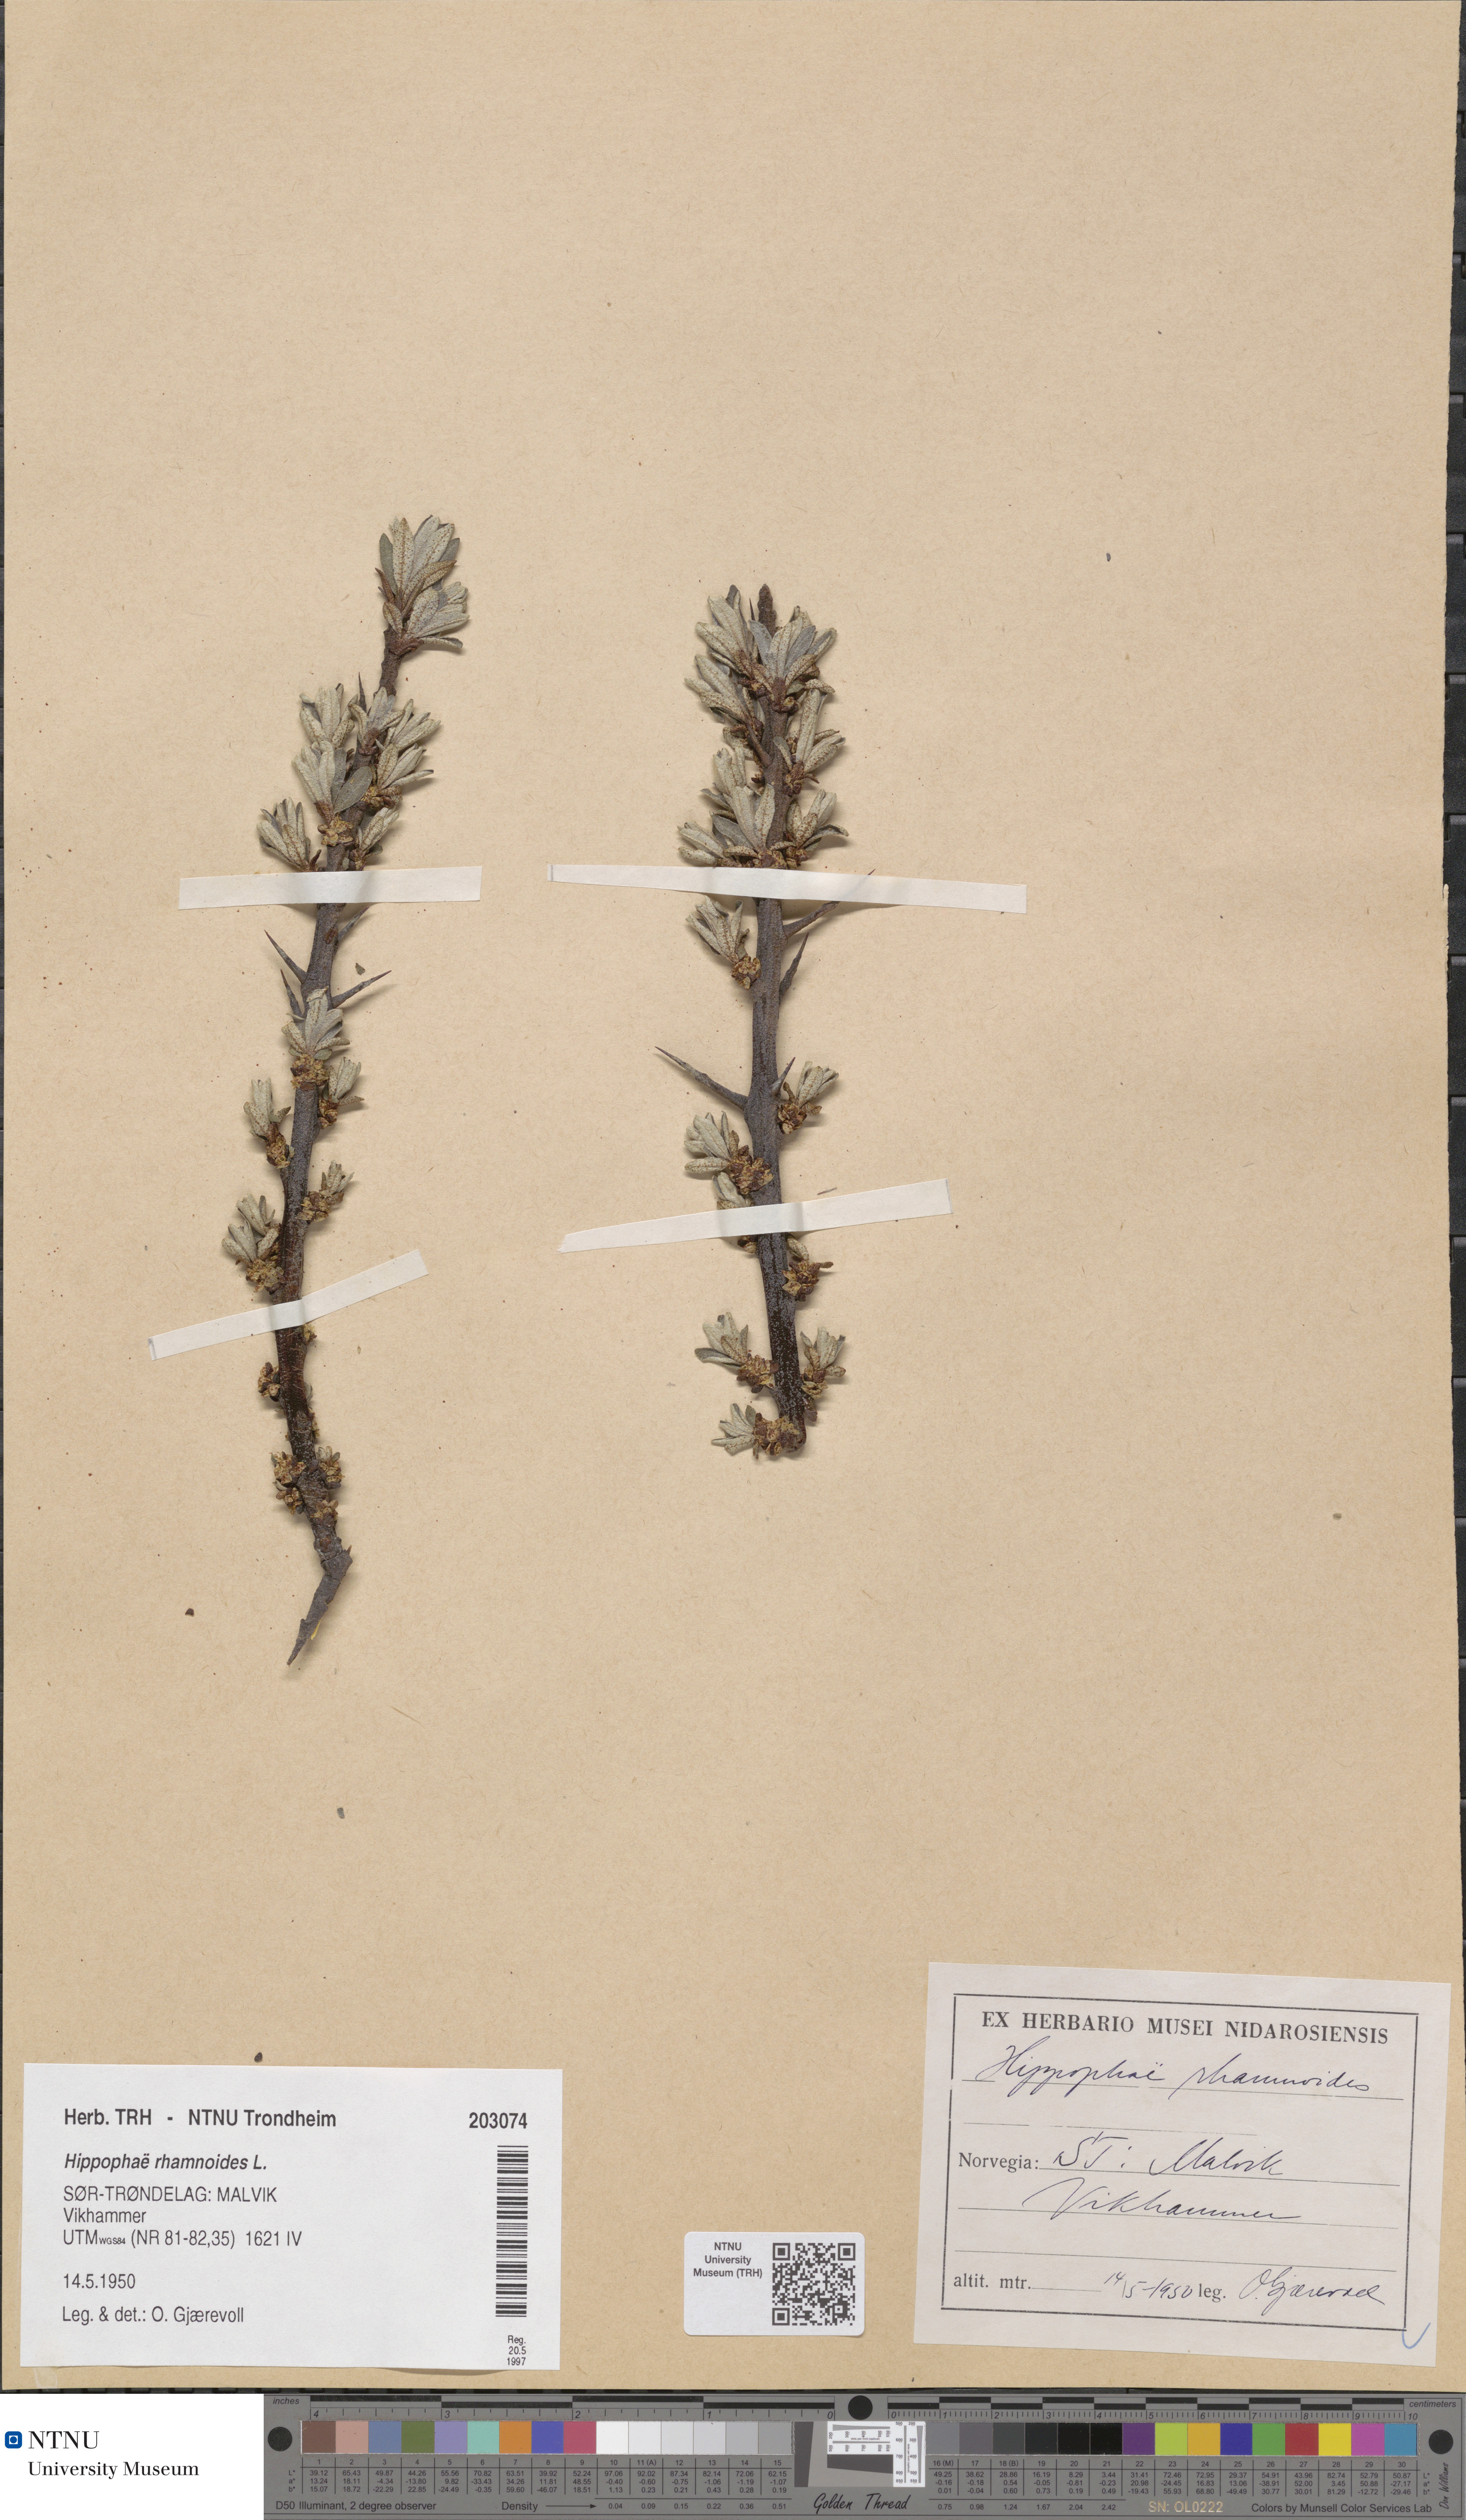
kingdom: Plantae
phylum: Tracheophyta
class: Magnoliopsida
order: Rosales
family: Elaeagnaceae
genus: Hippophae
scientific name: Hippophae rhamnoides
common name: Sea-buckthorn
